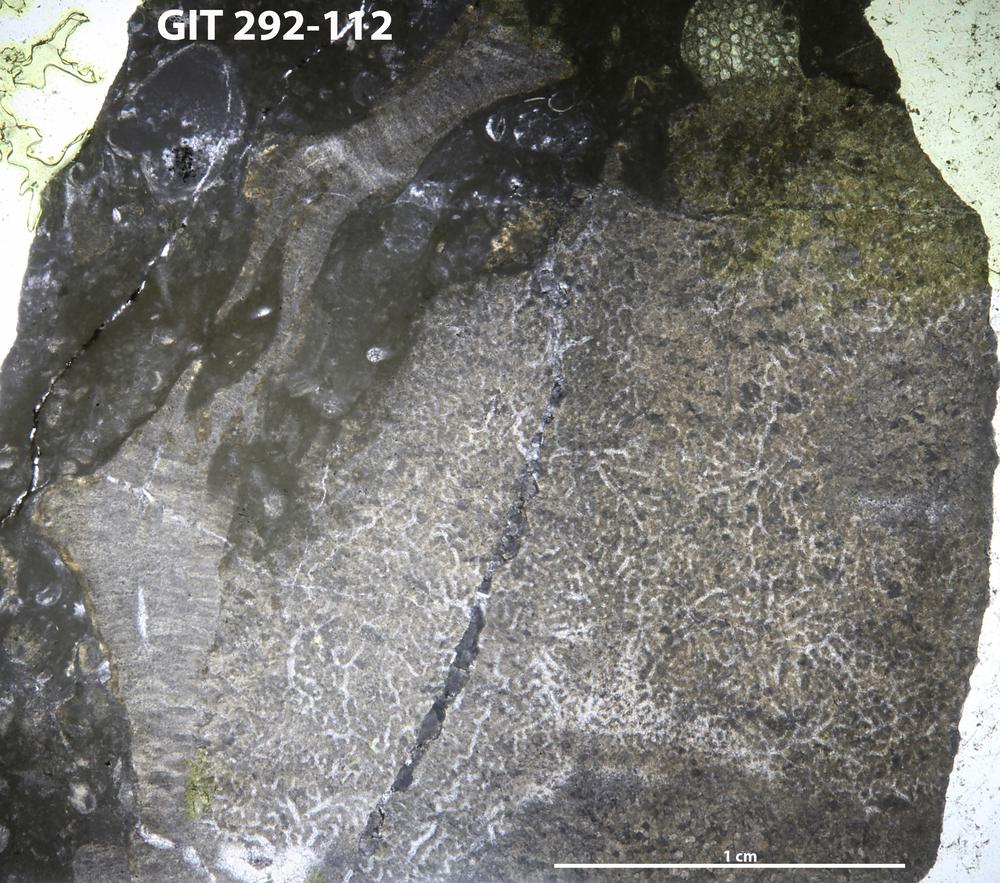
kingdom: Animalia
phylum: Porifera
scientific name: Porifera
